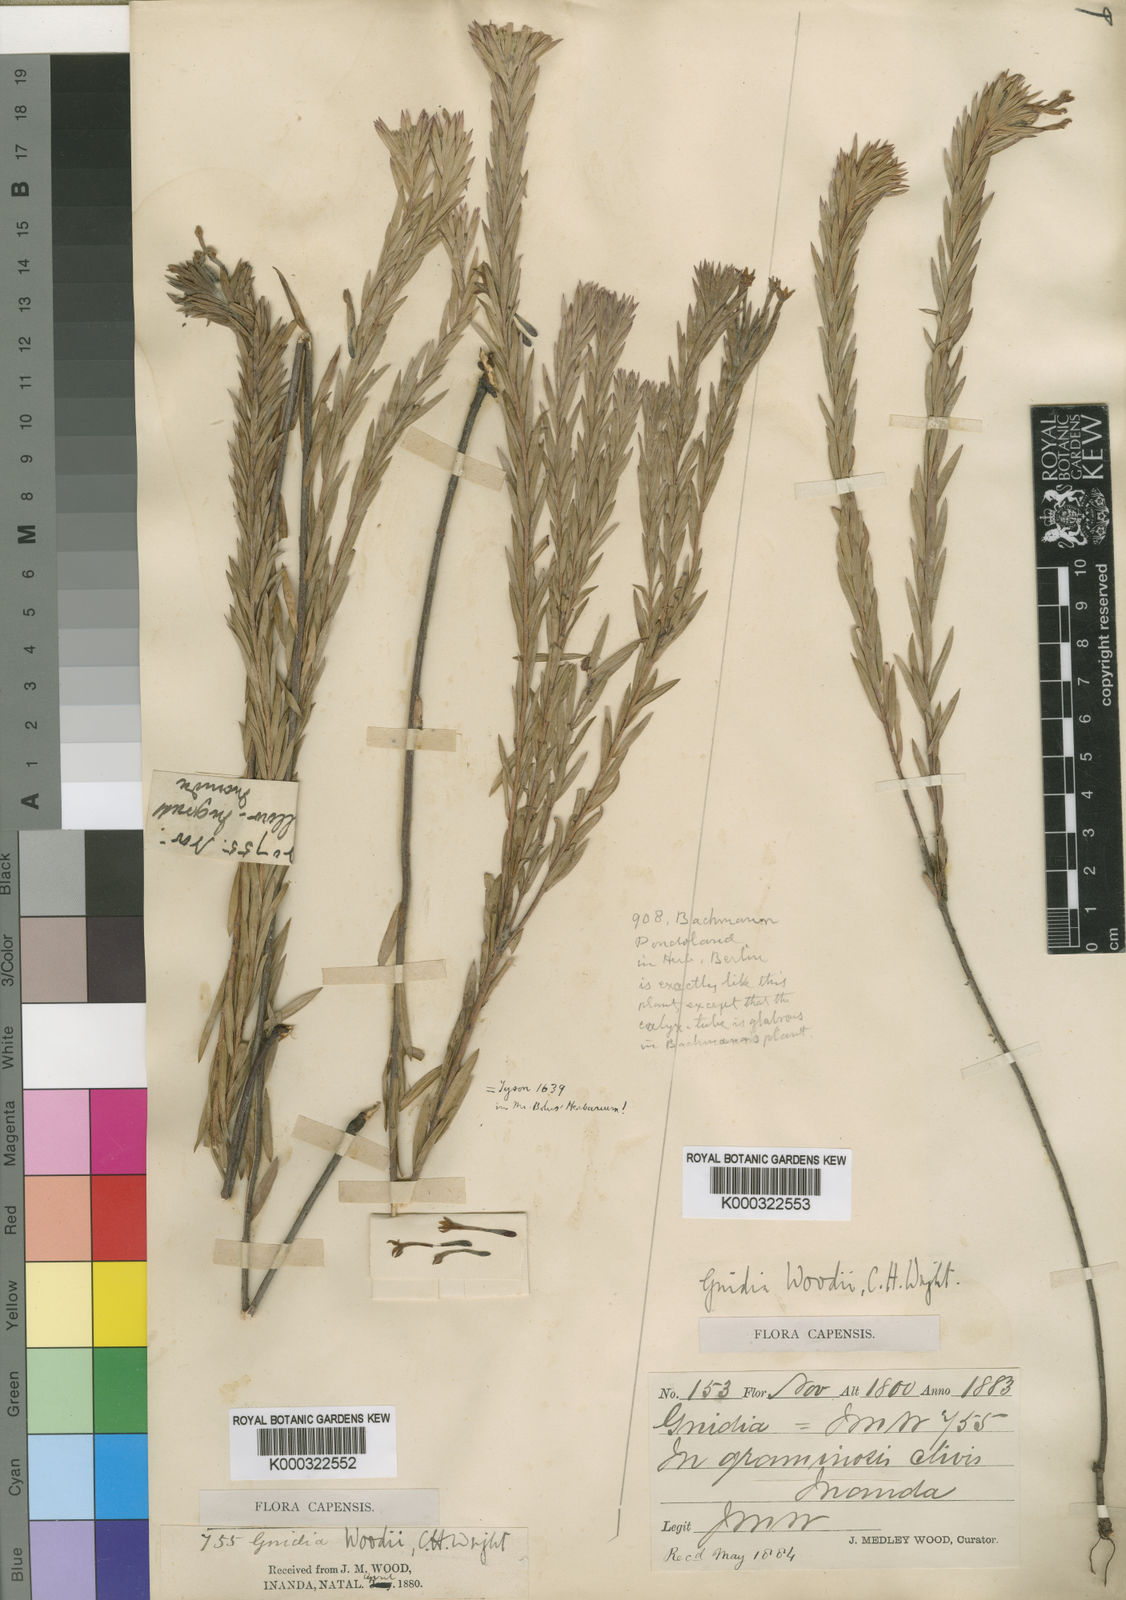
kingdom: Plantae
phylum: Tracheophyta
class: Magnoliopsida
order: Malvales
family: Thymelaeaceae
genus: Gnidia
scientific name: Gnidia woodii
